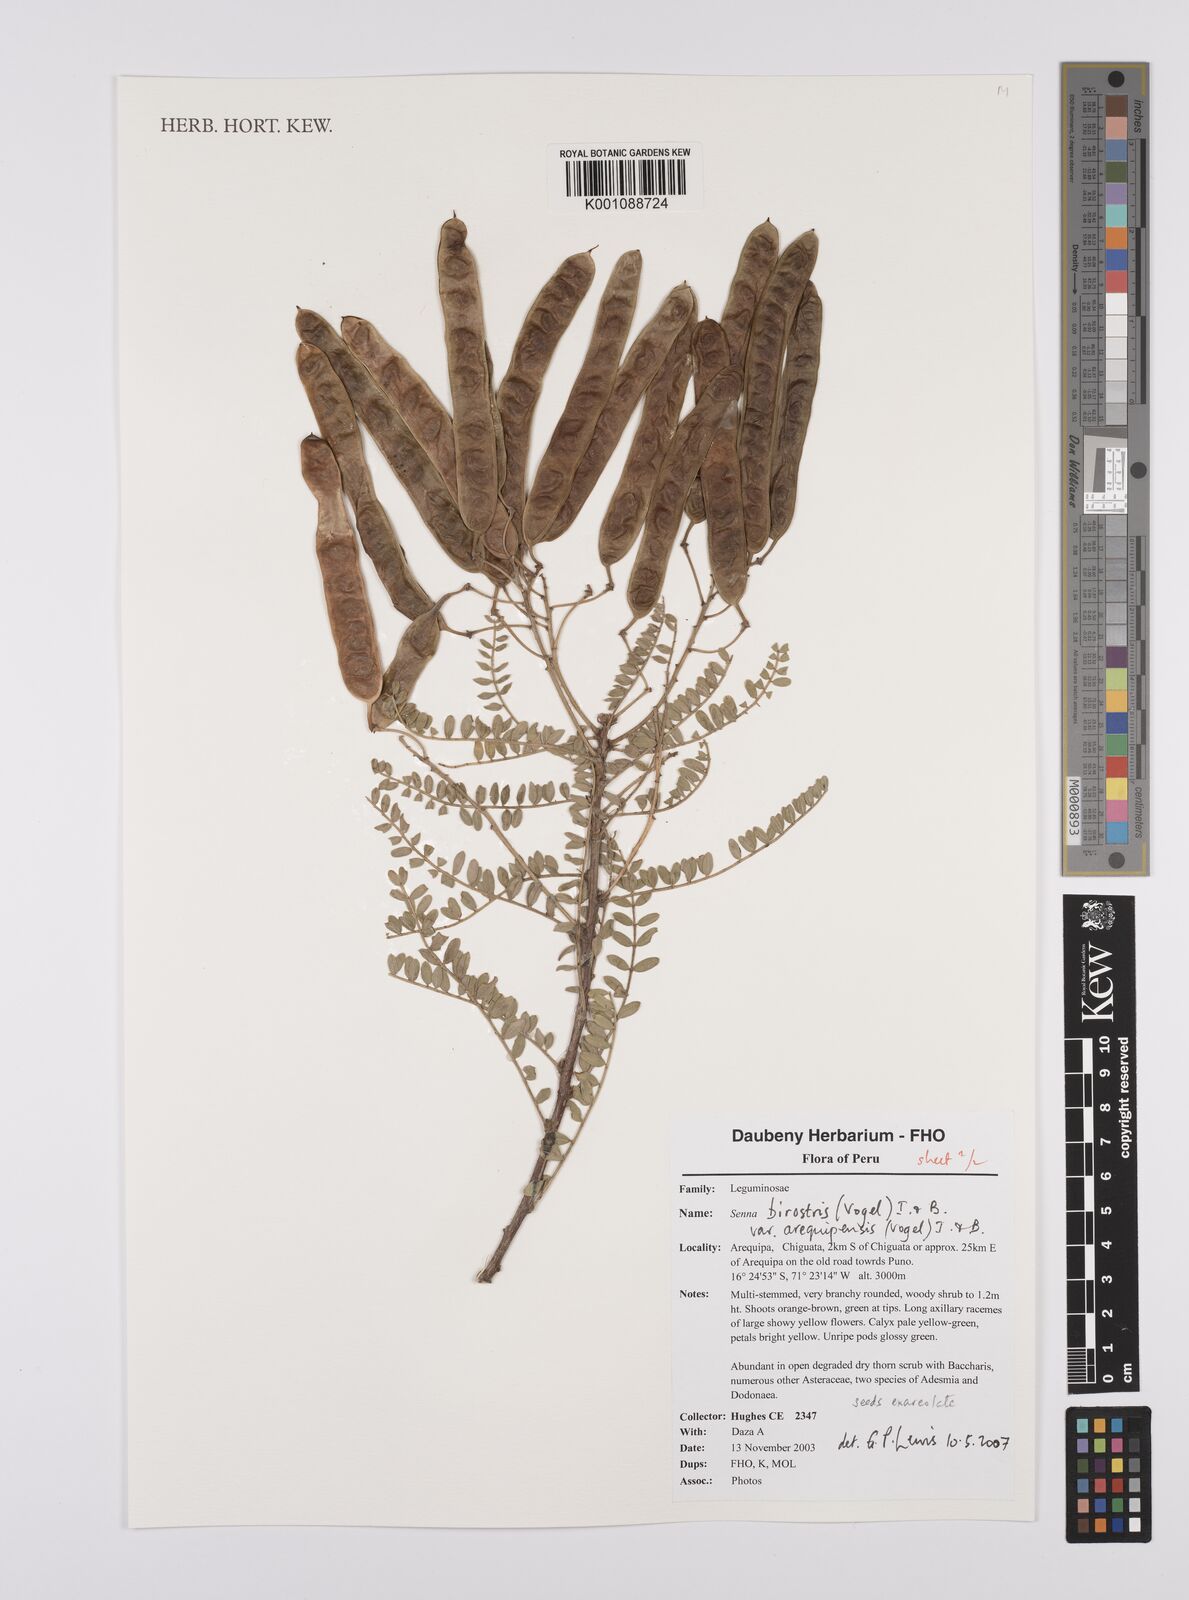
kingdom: Plantae
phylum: Tracheophyta
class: Magnoliopsida
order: Fabales
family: Fabaceae
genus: Senna
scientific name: Senna birostris
